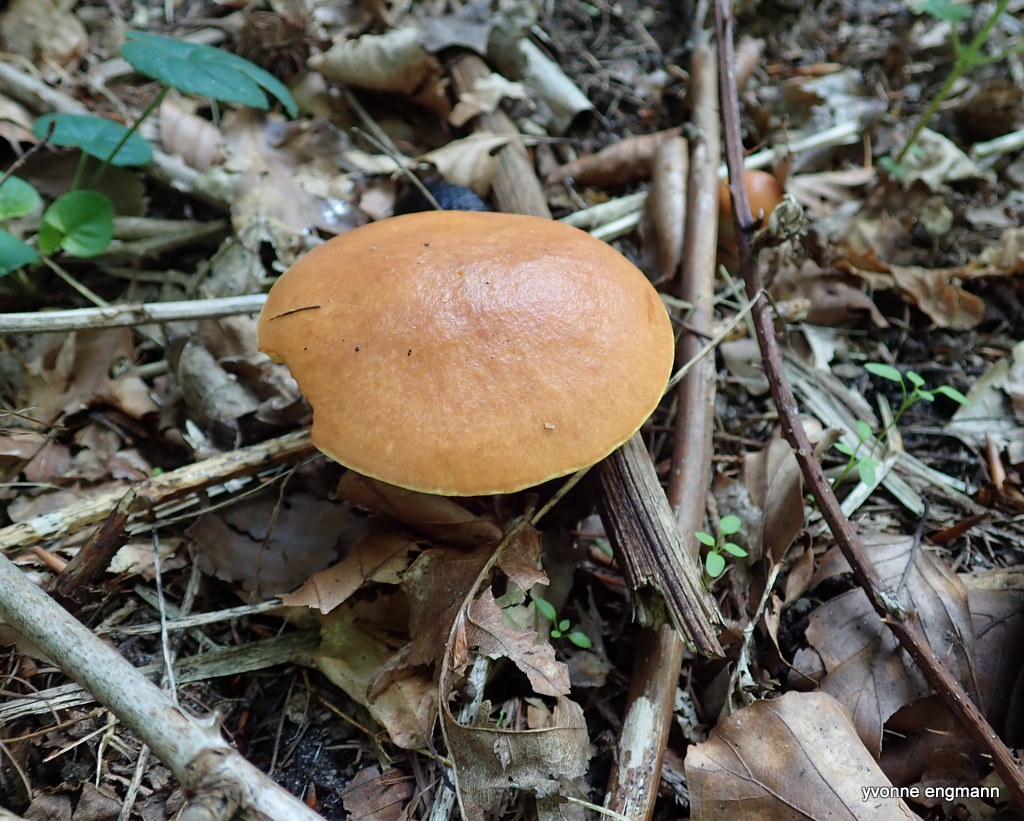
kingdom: Fungi
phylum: Basidiomycota
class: Agaricomycetes
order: Boletales
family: Suillaceae
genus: Suillus
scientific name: Suillus grevillei
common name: lærke-slimrørhat
